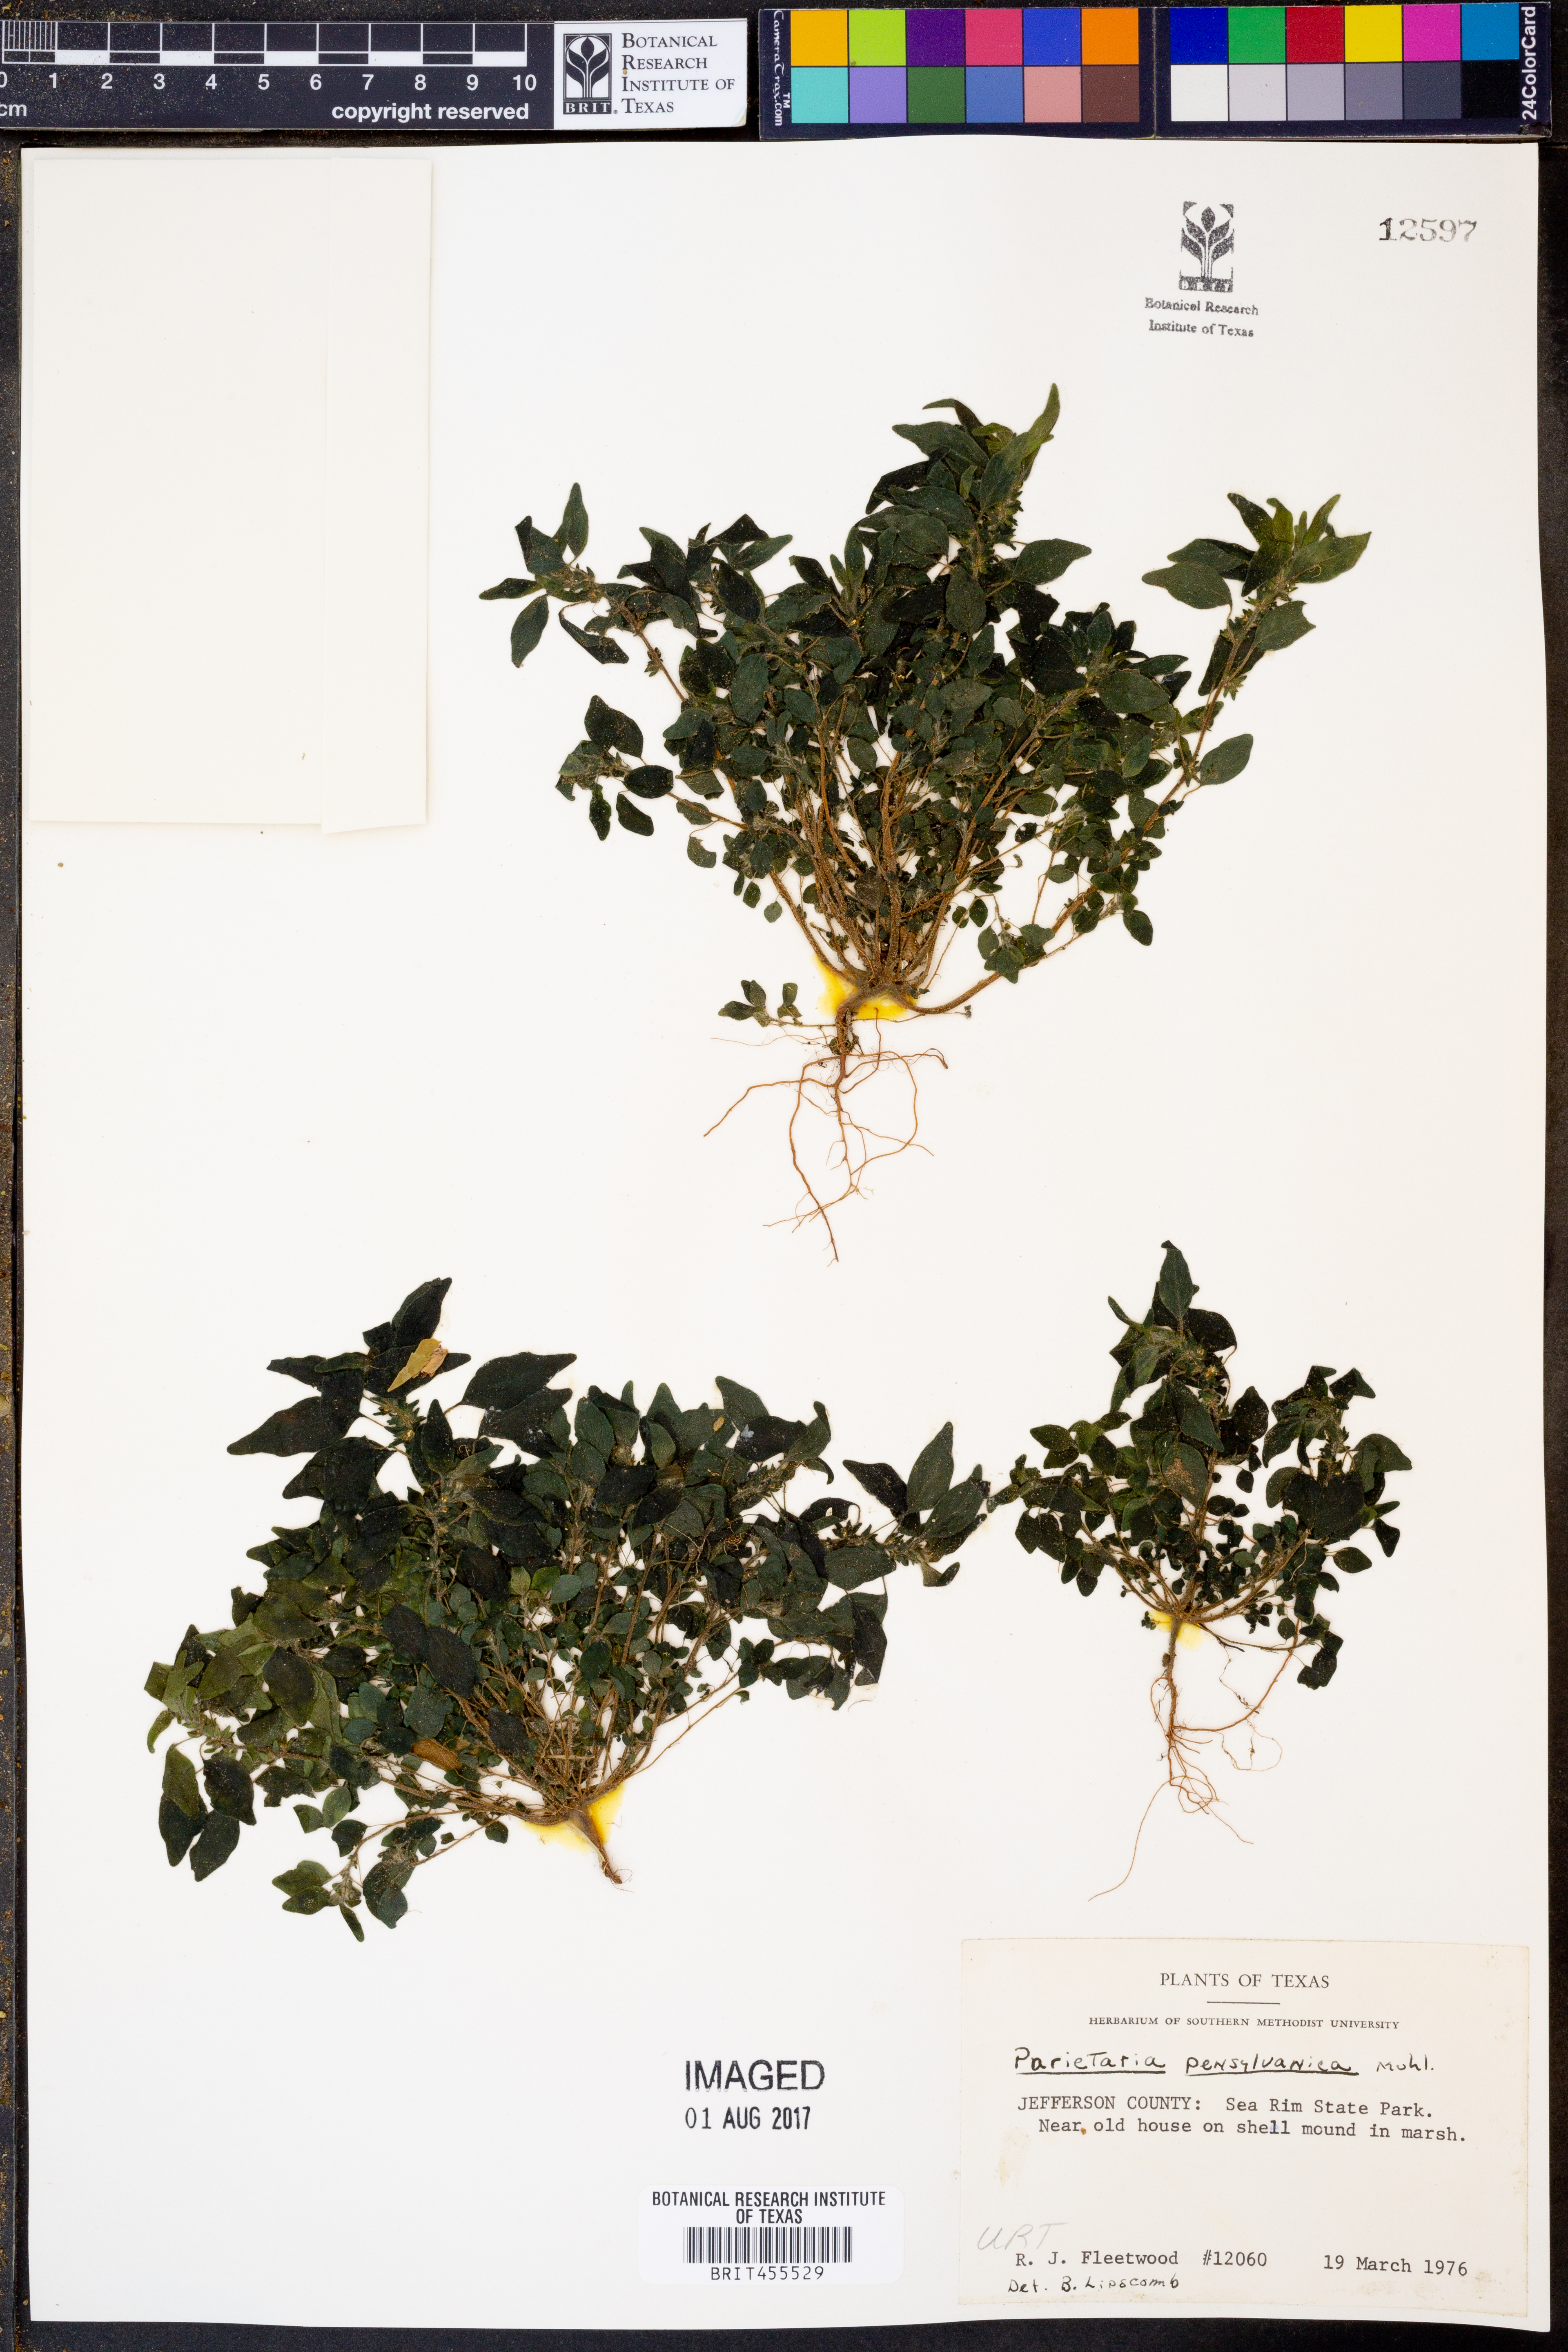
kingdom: Plantae
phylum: Tracheophyta
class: Magnoliopsida
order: Rosales
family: Urticaceae
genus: Parietaria
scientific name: Parietaria pensylvanica
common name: Pennsylvania pellitory
